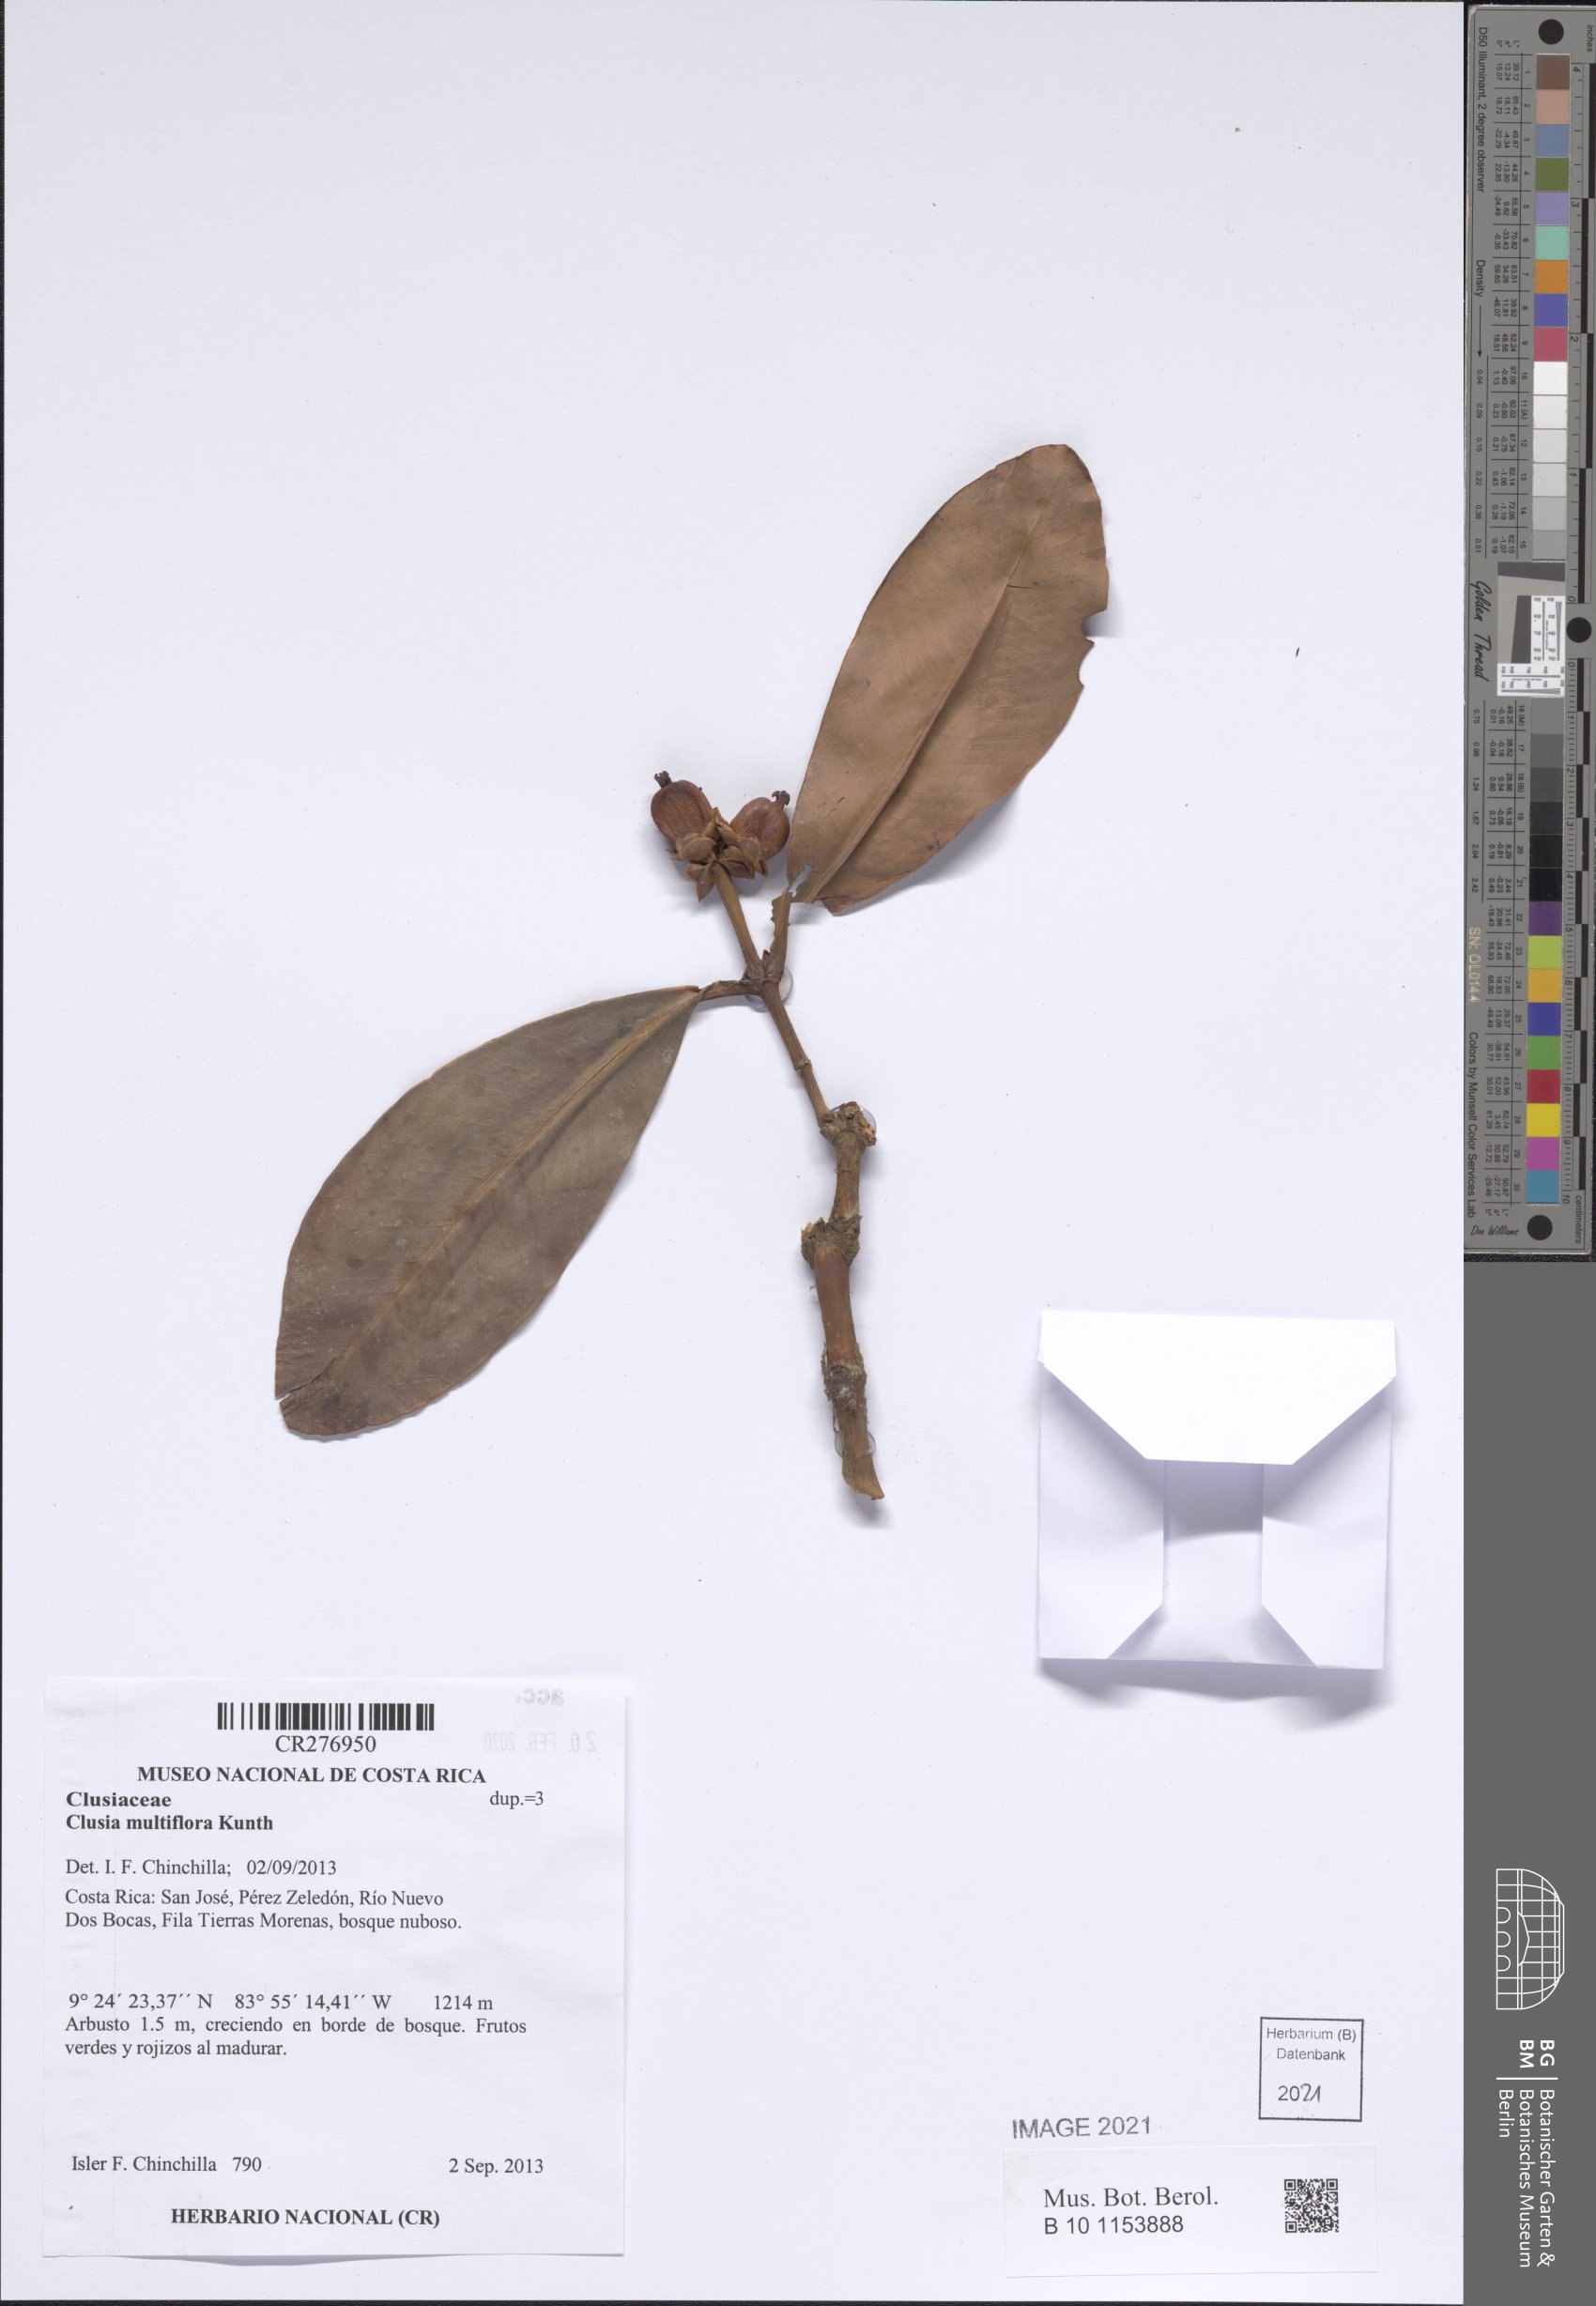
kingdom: Plantae
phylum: Tracheophyta
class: Magnoliopsida
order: Malpighiales
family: Clusiaceae
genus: Clusia
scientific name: Clusia multiflora
